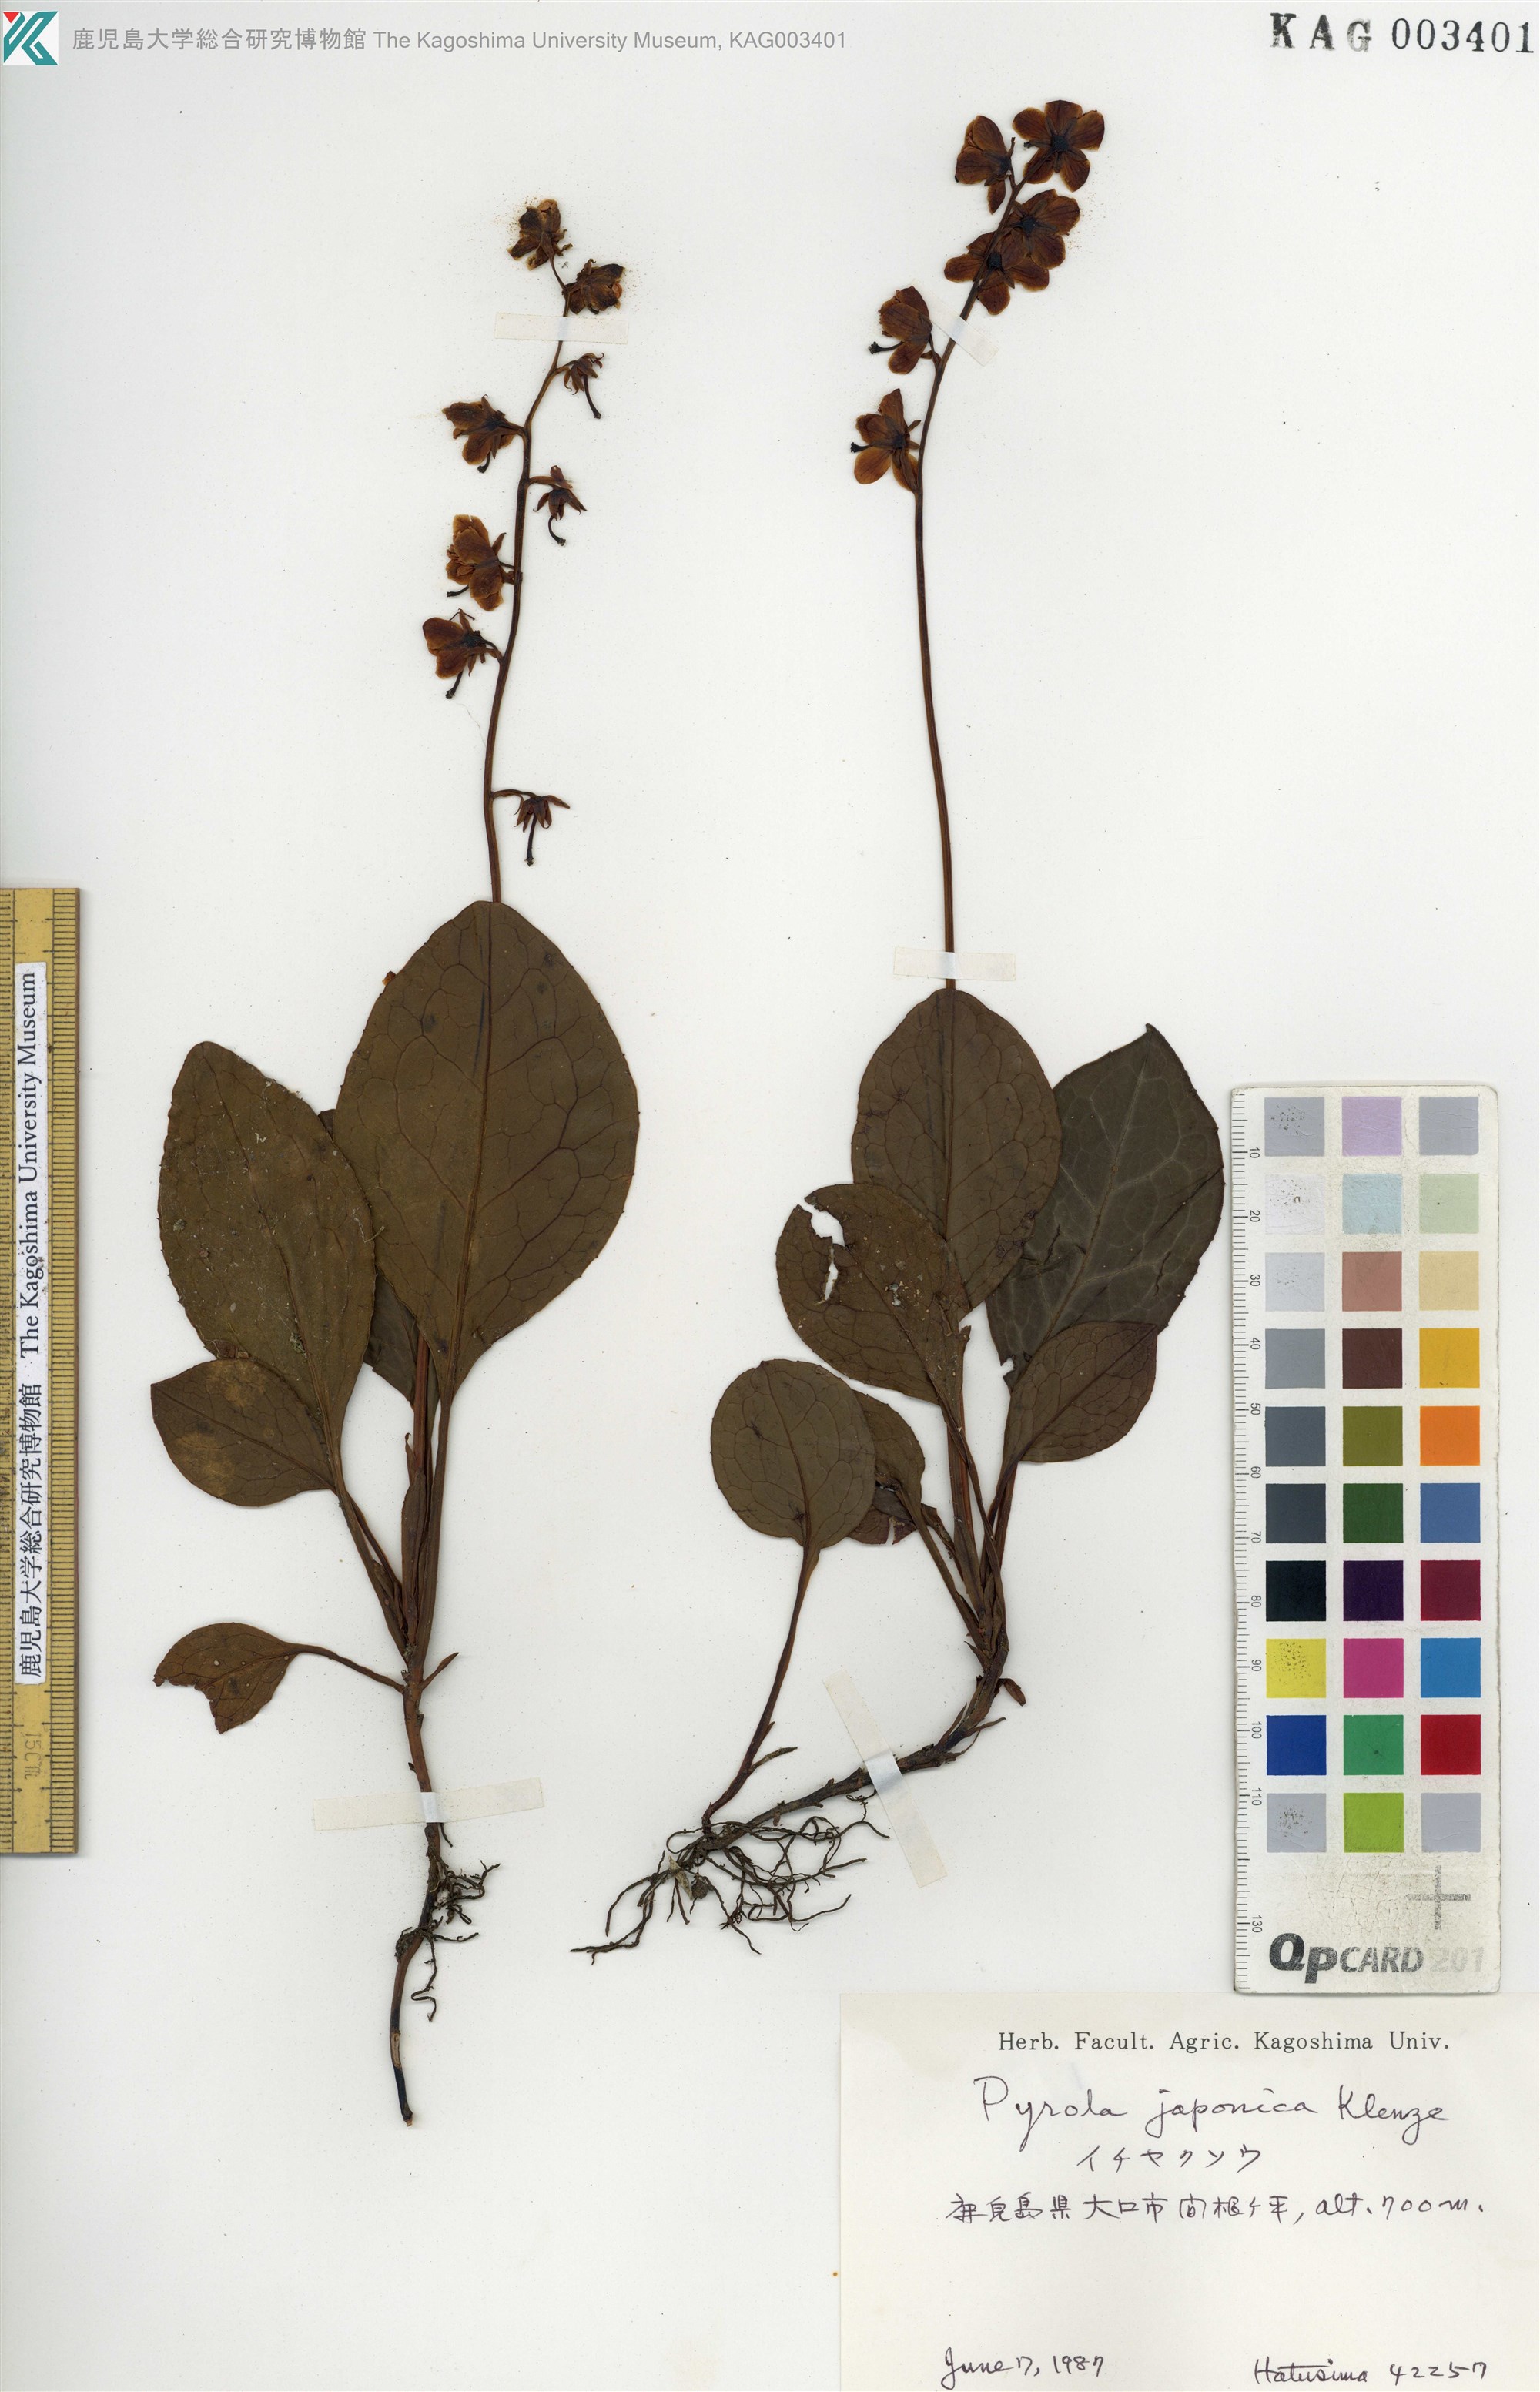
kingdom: Plantae
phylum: Tracheophyta
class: Magnoliopsida
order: Ericales
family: Ericaceae
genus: Pyrola
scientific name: Pyrola japonica
